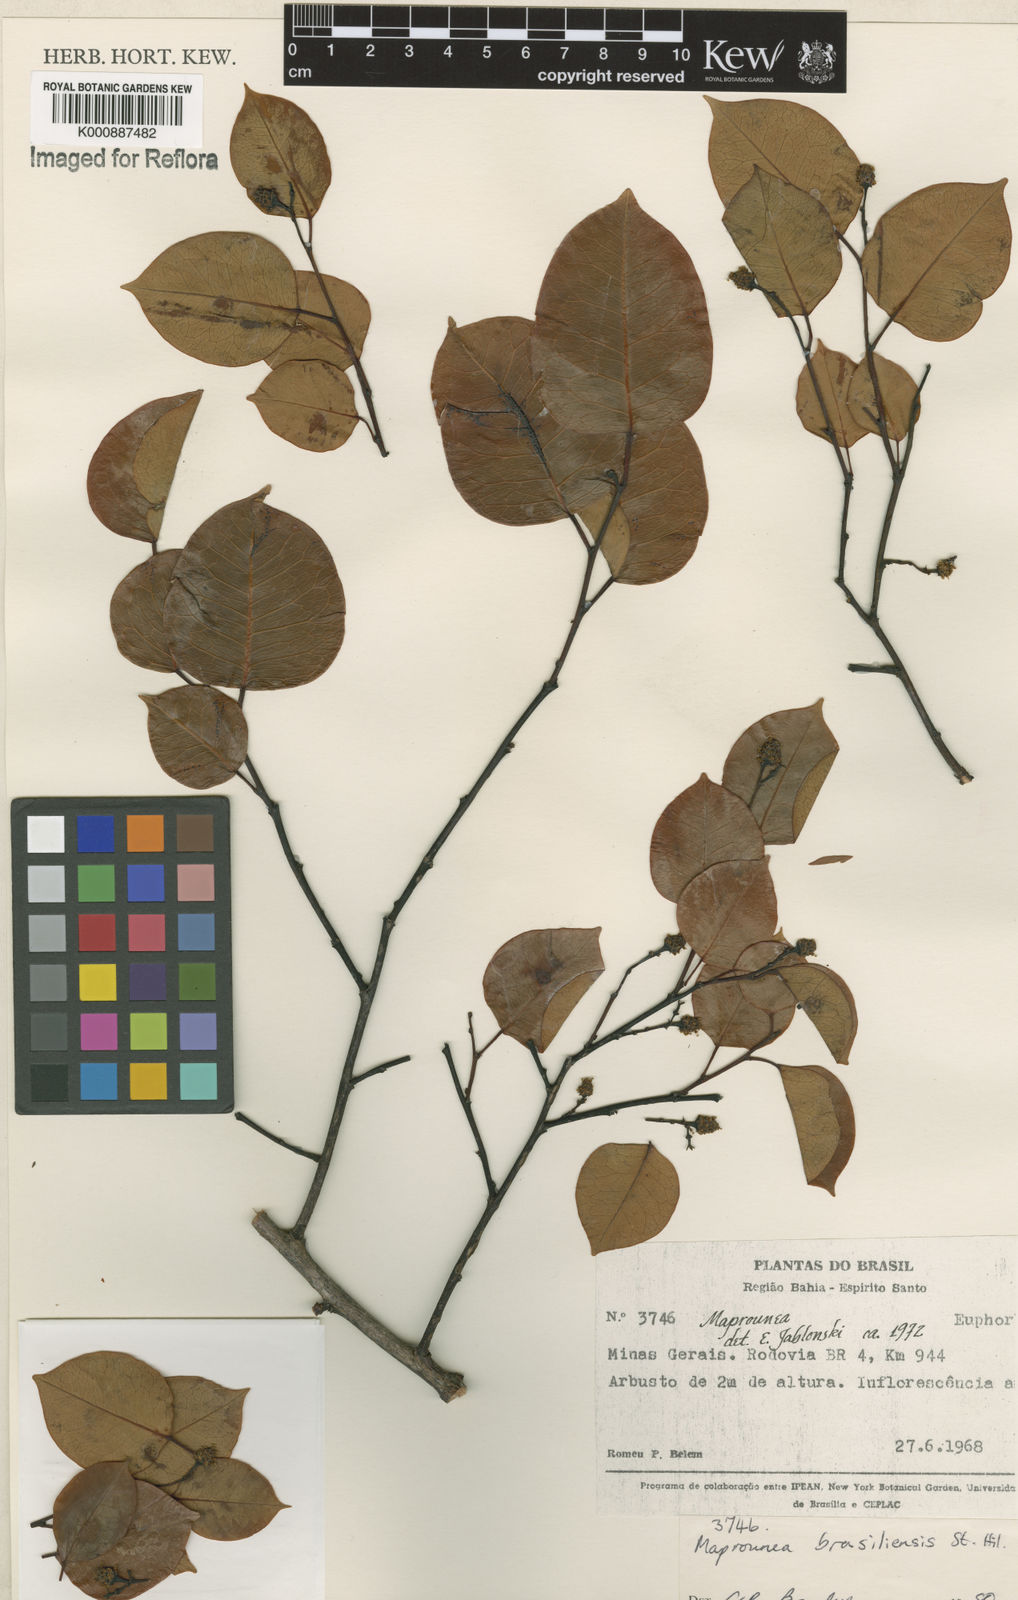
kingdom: Plantae
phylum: Tracheophyta
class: Magnoliopsida
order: Malpighiales
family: Euphorbiaceae
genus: Maprounea
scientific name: Maprounea brasiliensis
